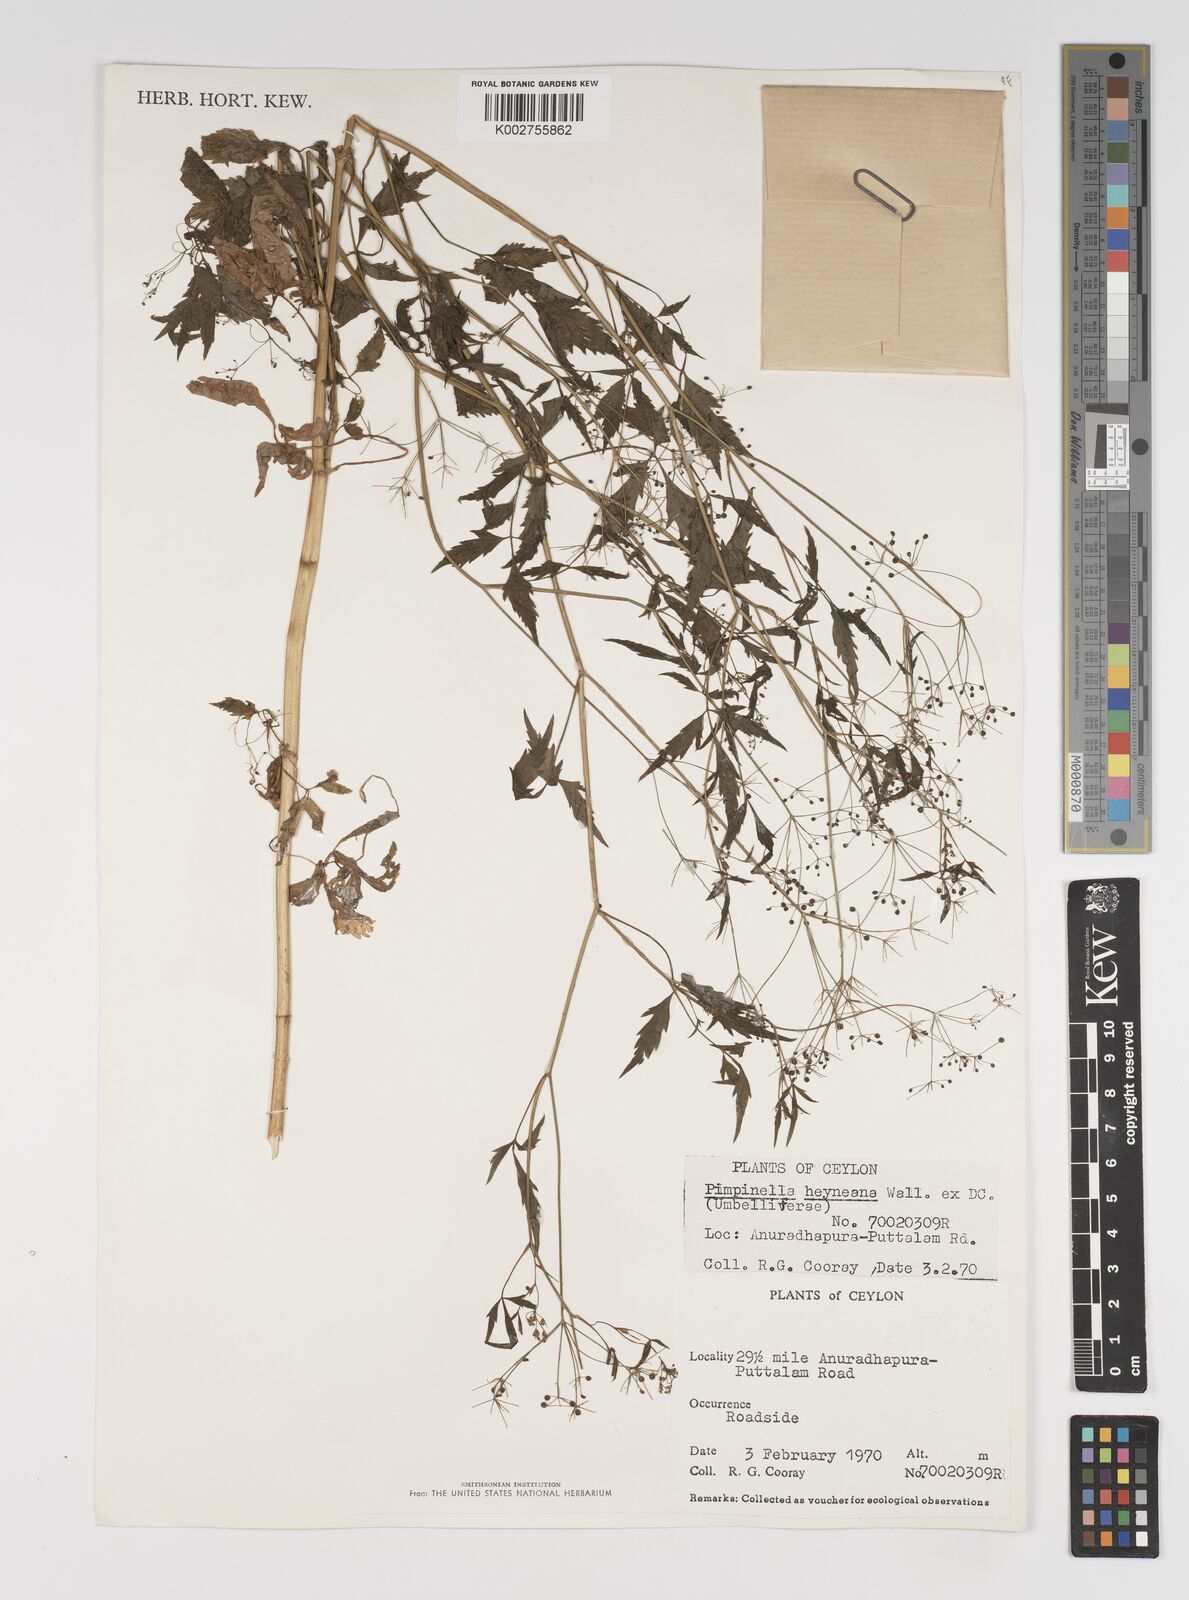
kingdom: Plantae
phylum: Tracheophyta
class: Magnoliopsida
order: Apiales
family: Apiaceae
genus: Pimpinella
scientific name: Pimpinella heyneana
